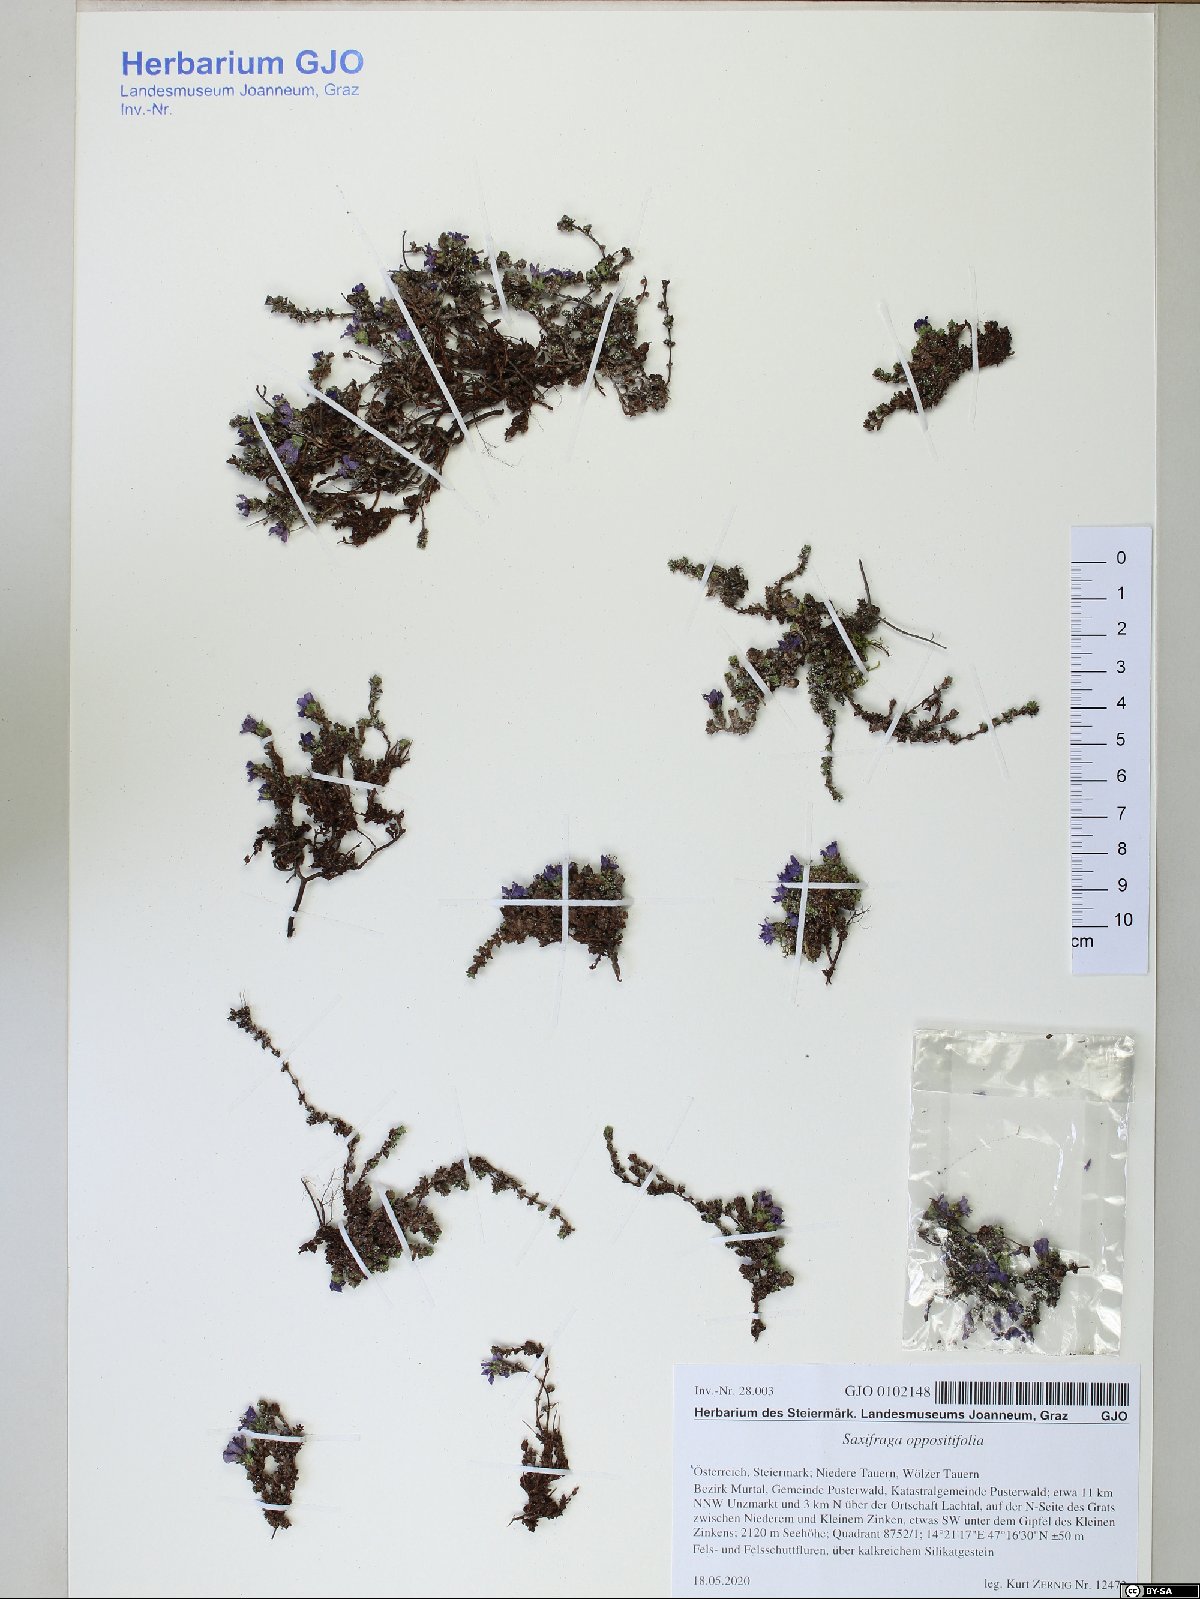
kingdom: Plantae
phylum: Tracheophyta
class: Magnoliopsida
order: Saxifragales
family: Saxifragaceae
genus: Saxifraga
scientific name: Saxifraga oppositifolia
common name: Purple saxifrage
